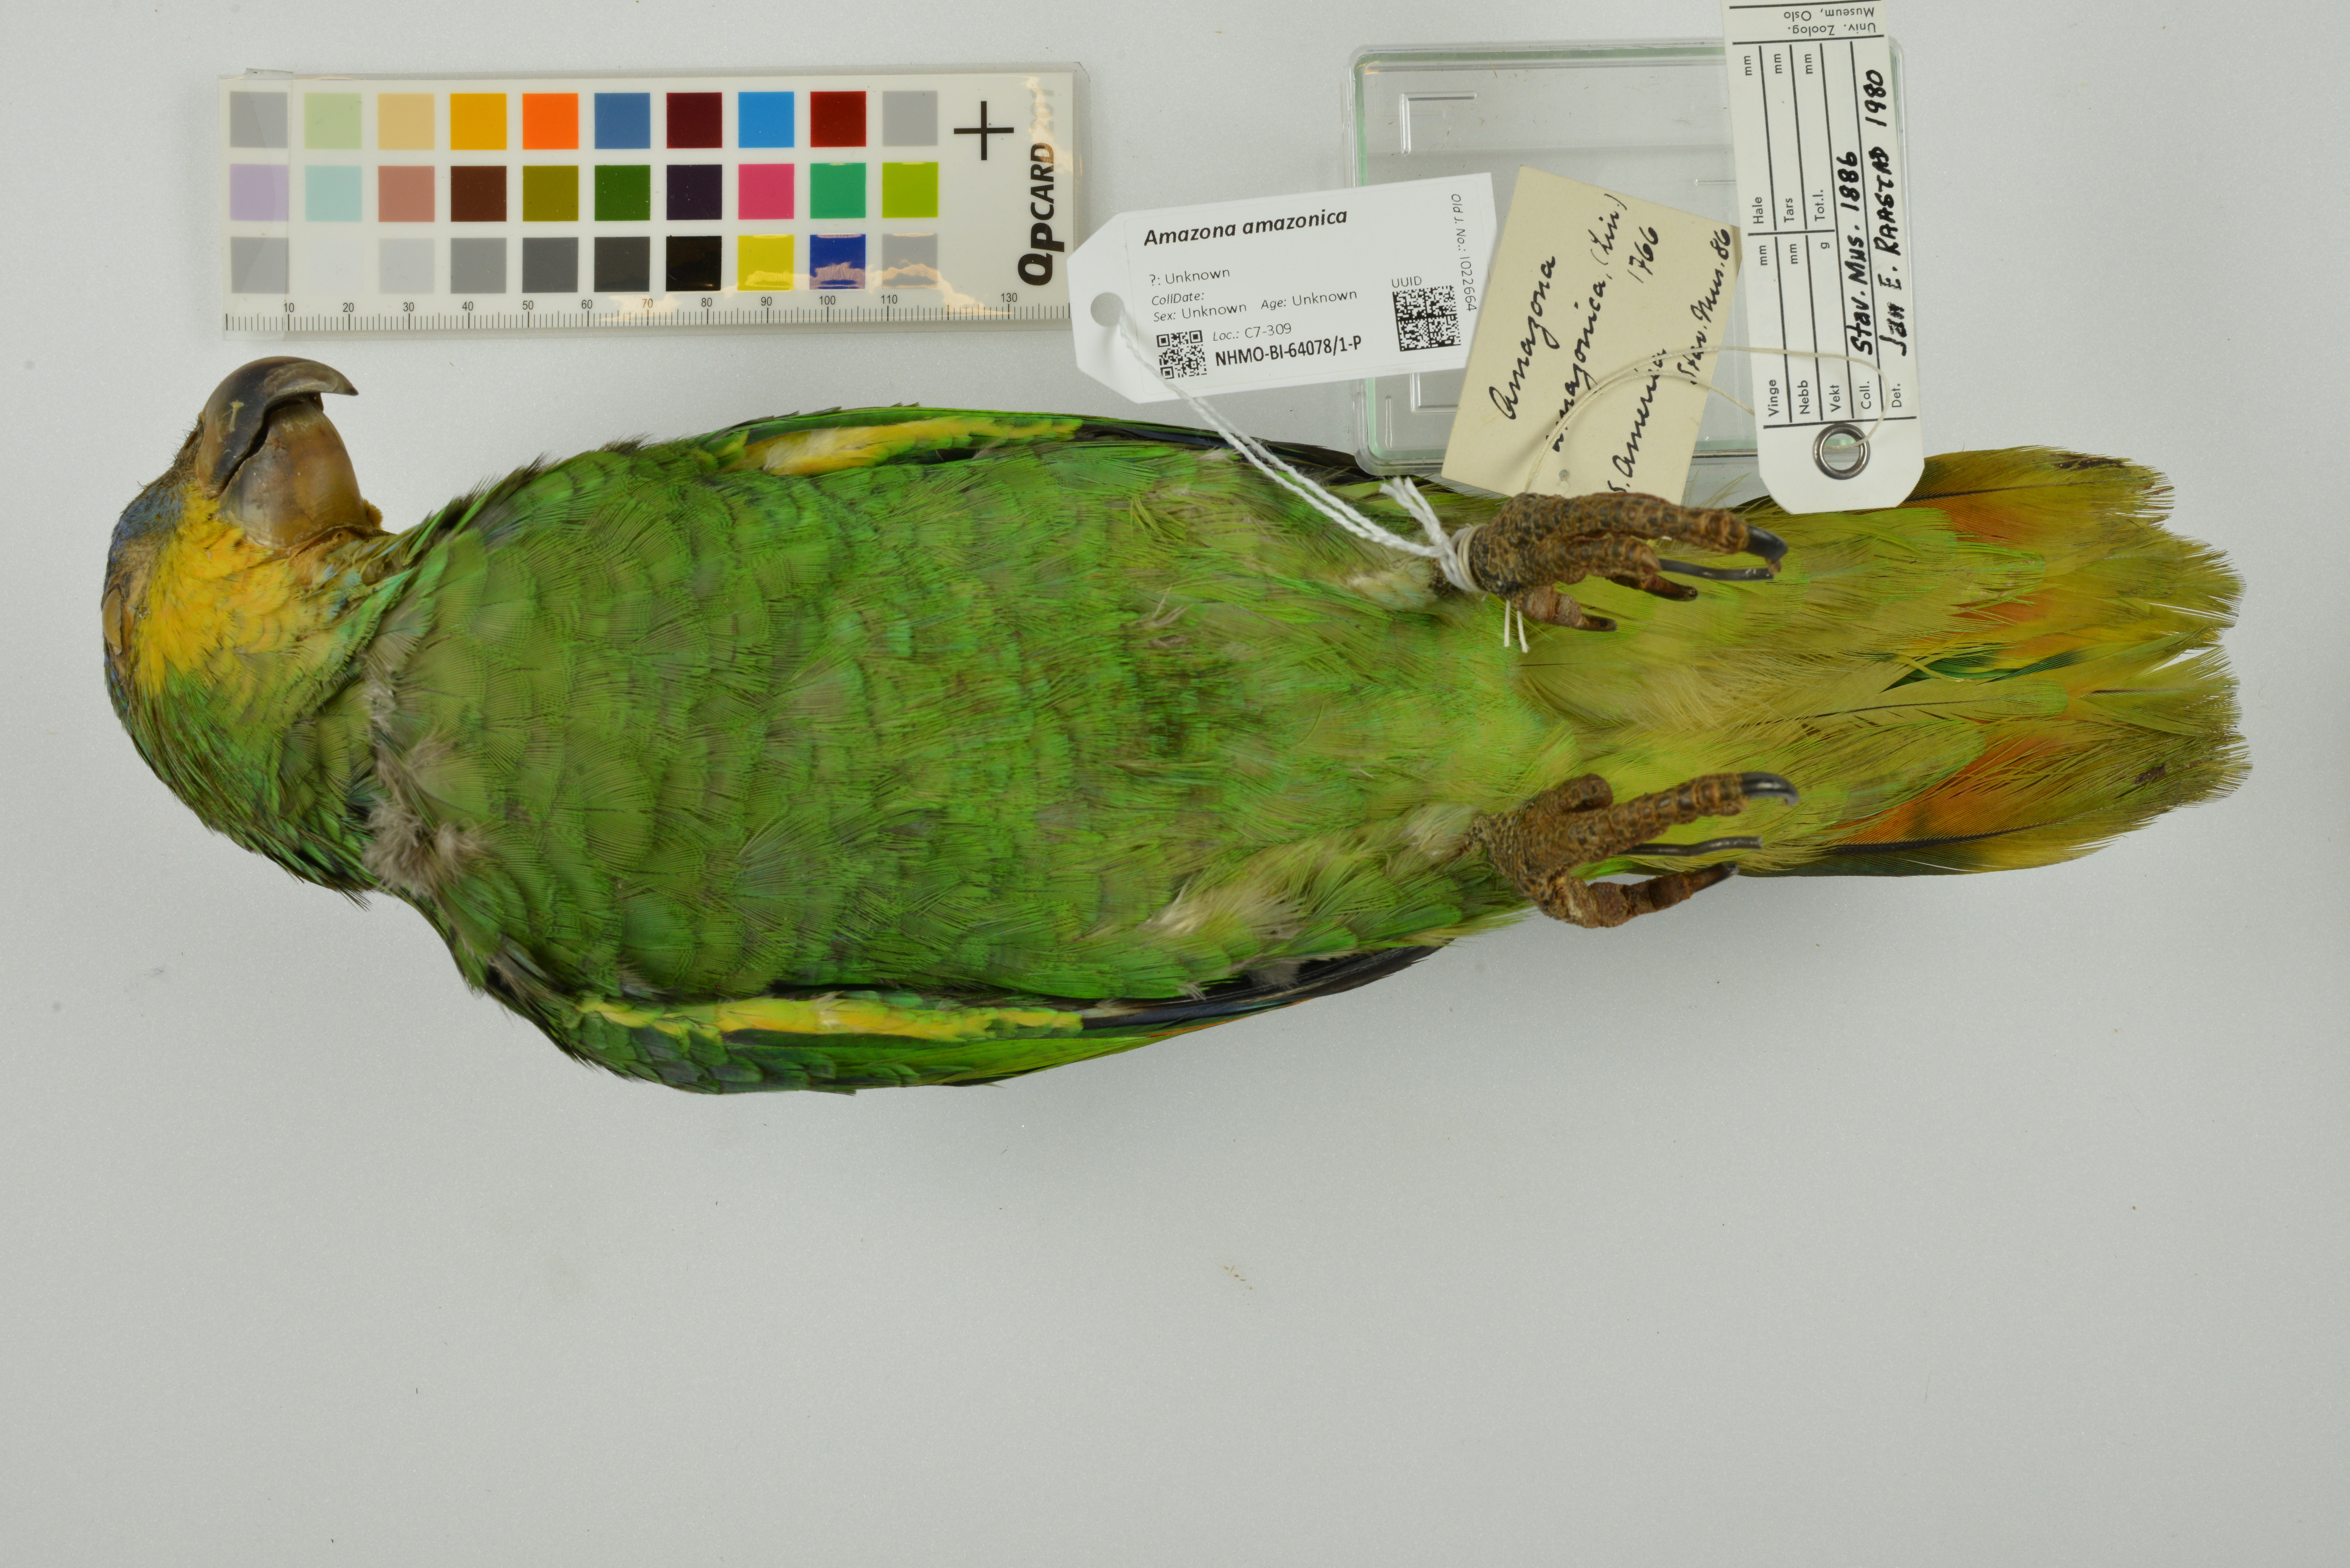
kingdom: Animalia
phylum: Chordata
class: Aves
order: Psittaciformes
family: Psittacidae
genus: Amazona
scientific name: Amazona amazonica
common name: Orange-winged amazon
